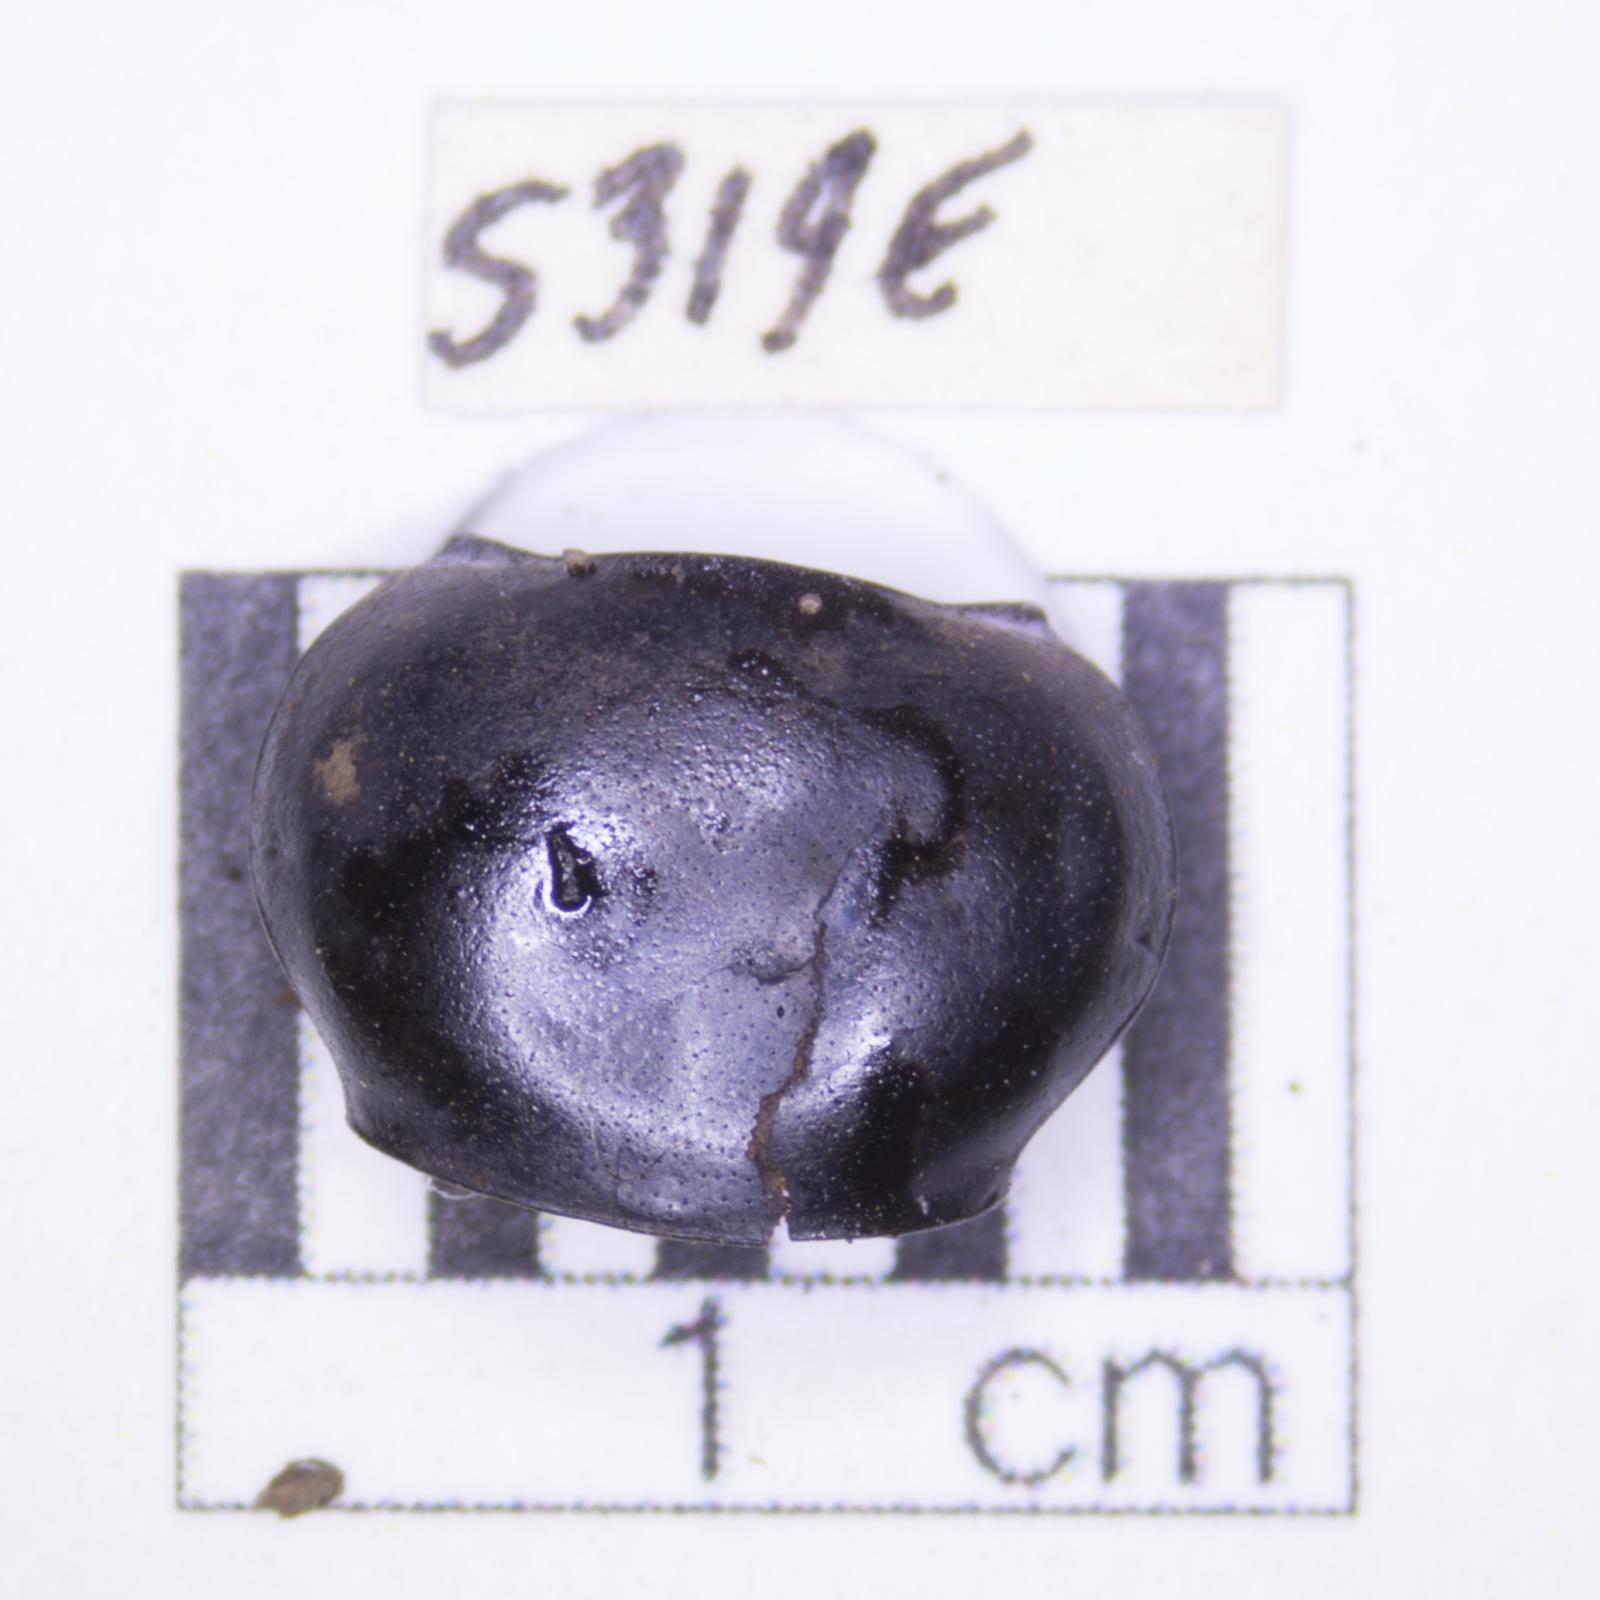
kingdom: Animalia
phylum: Arthropoda
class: Insecta
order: Coleoptera
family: Tenebrionidae
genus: Eleodes
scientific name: Eleodes acuticauda
